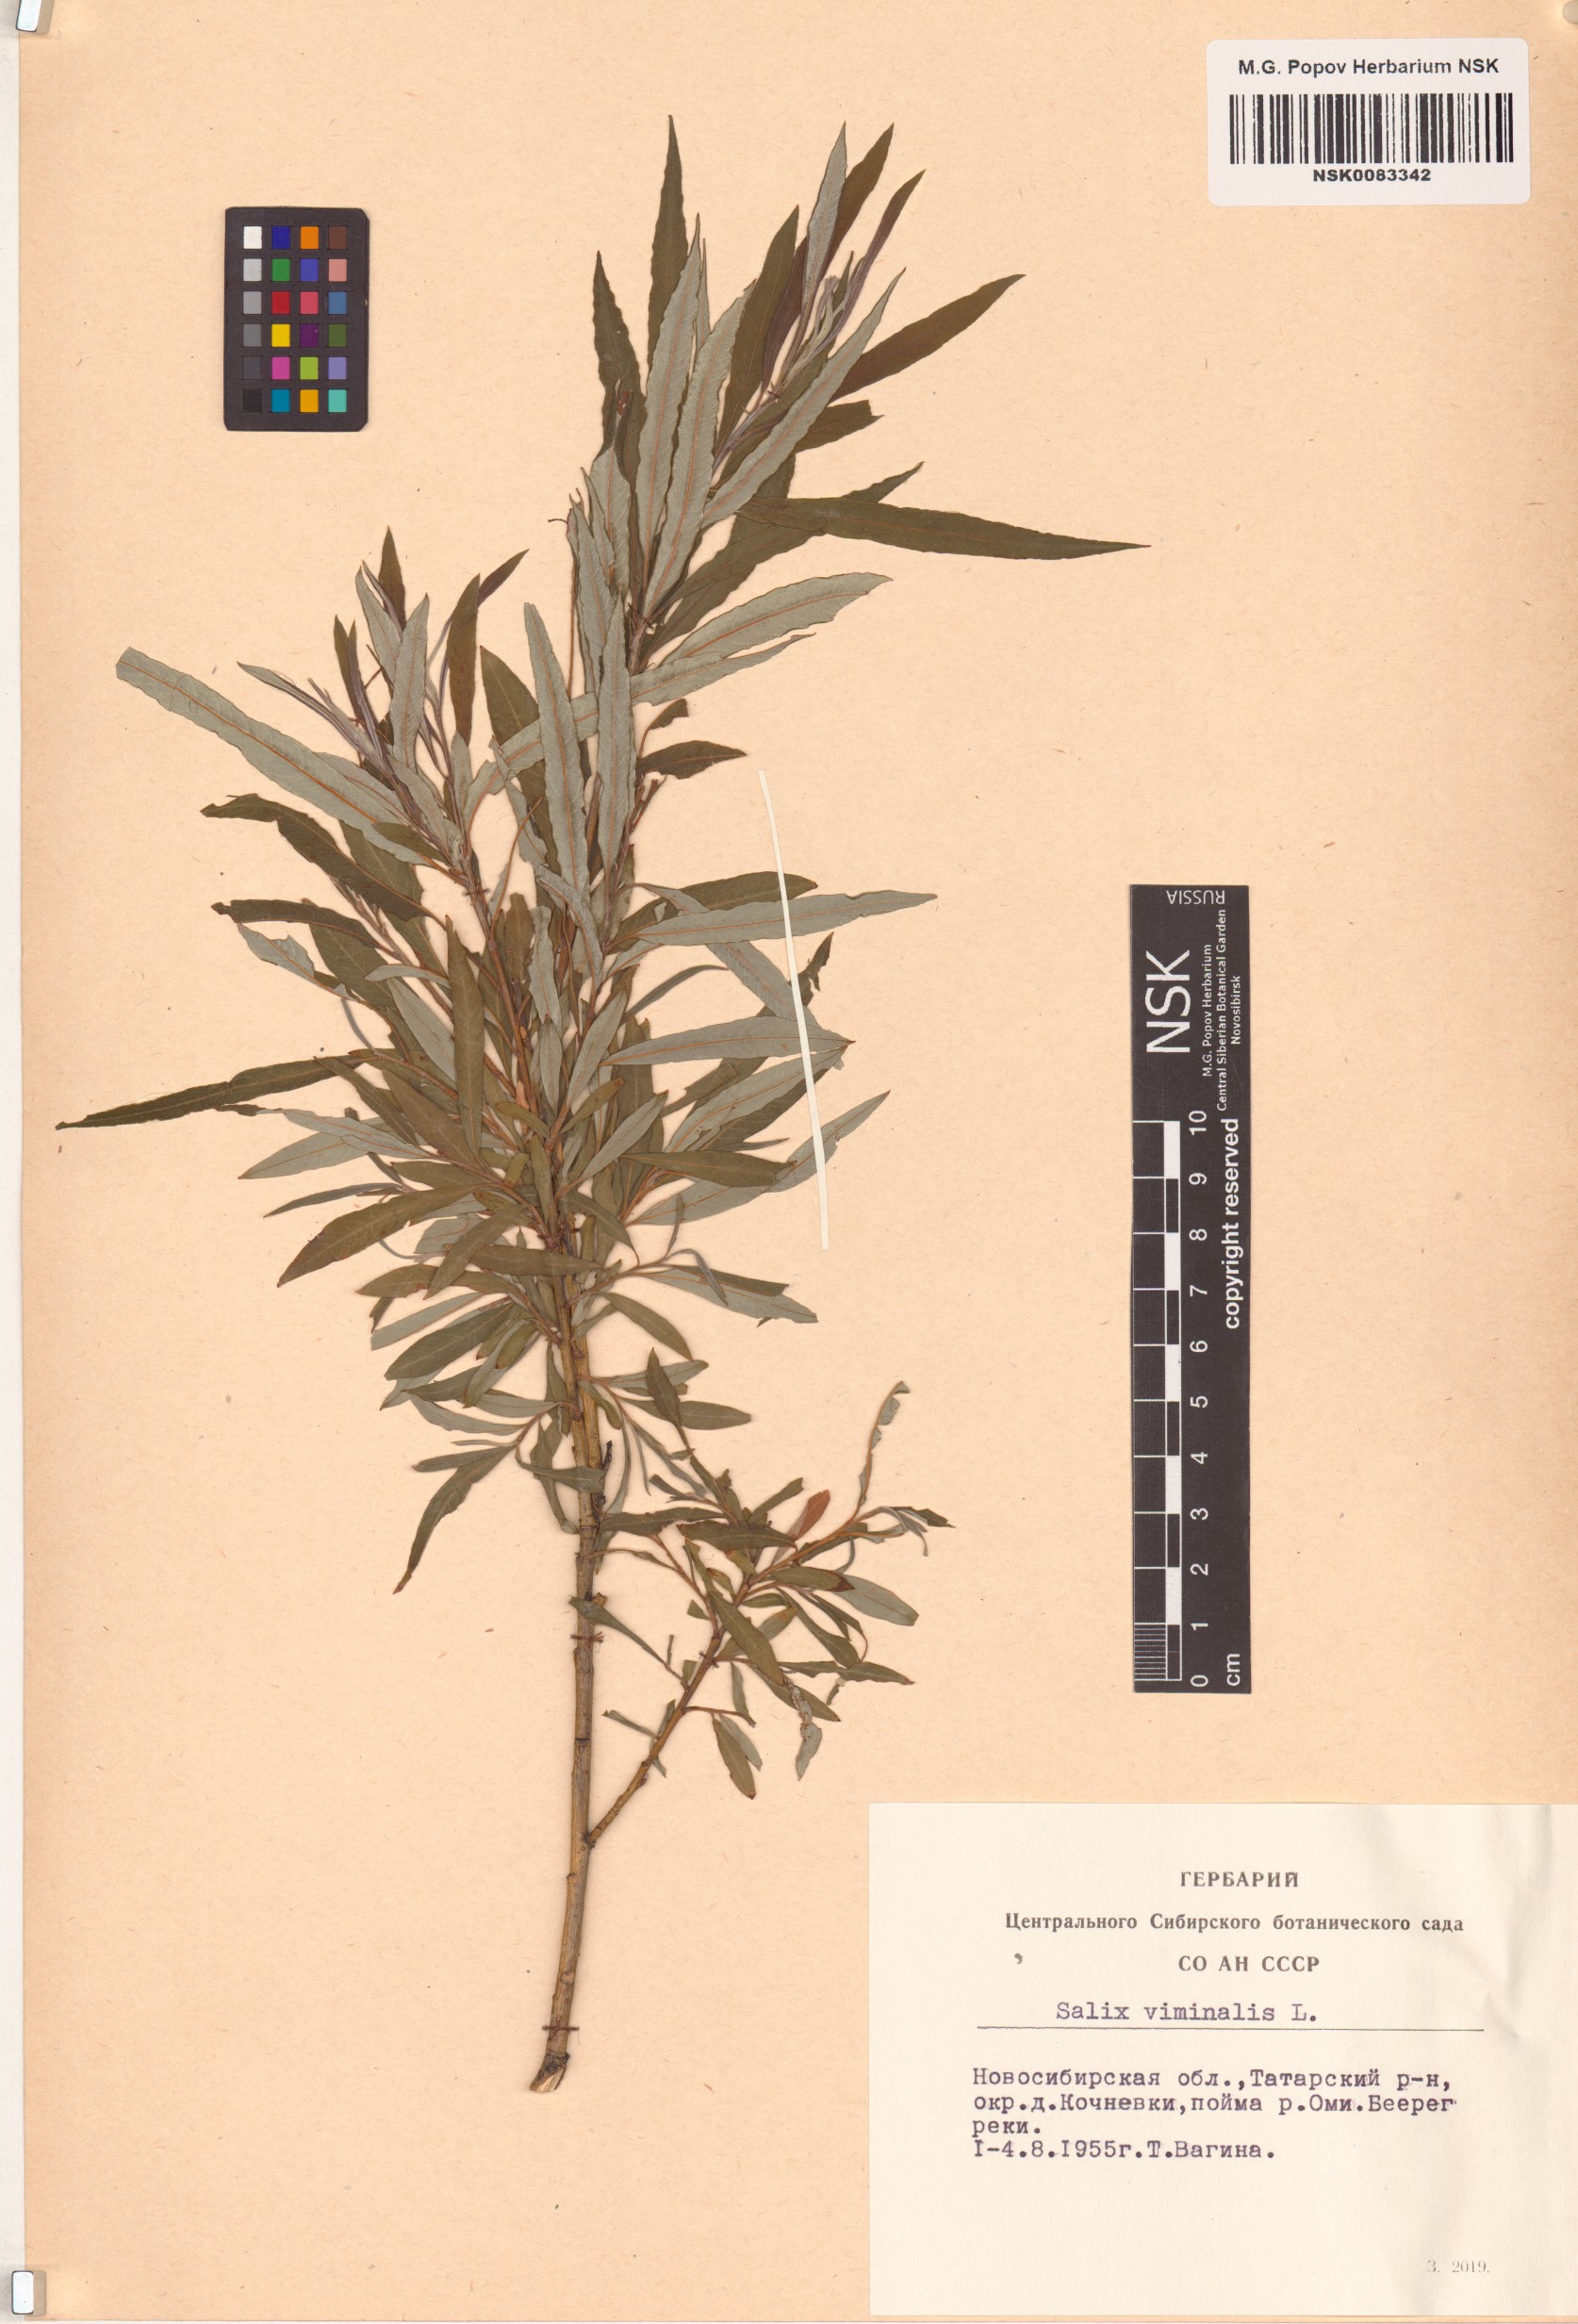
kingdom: Plantae
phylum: Tracheophyta
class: Magnoliopsida
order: Malpighiales
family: Salicaceae
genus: Salix
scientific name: Salix viminalis
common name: Osier
